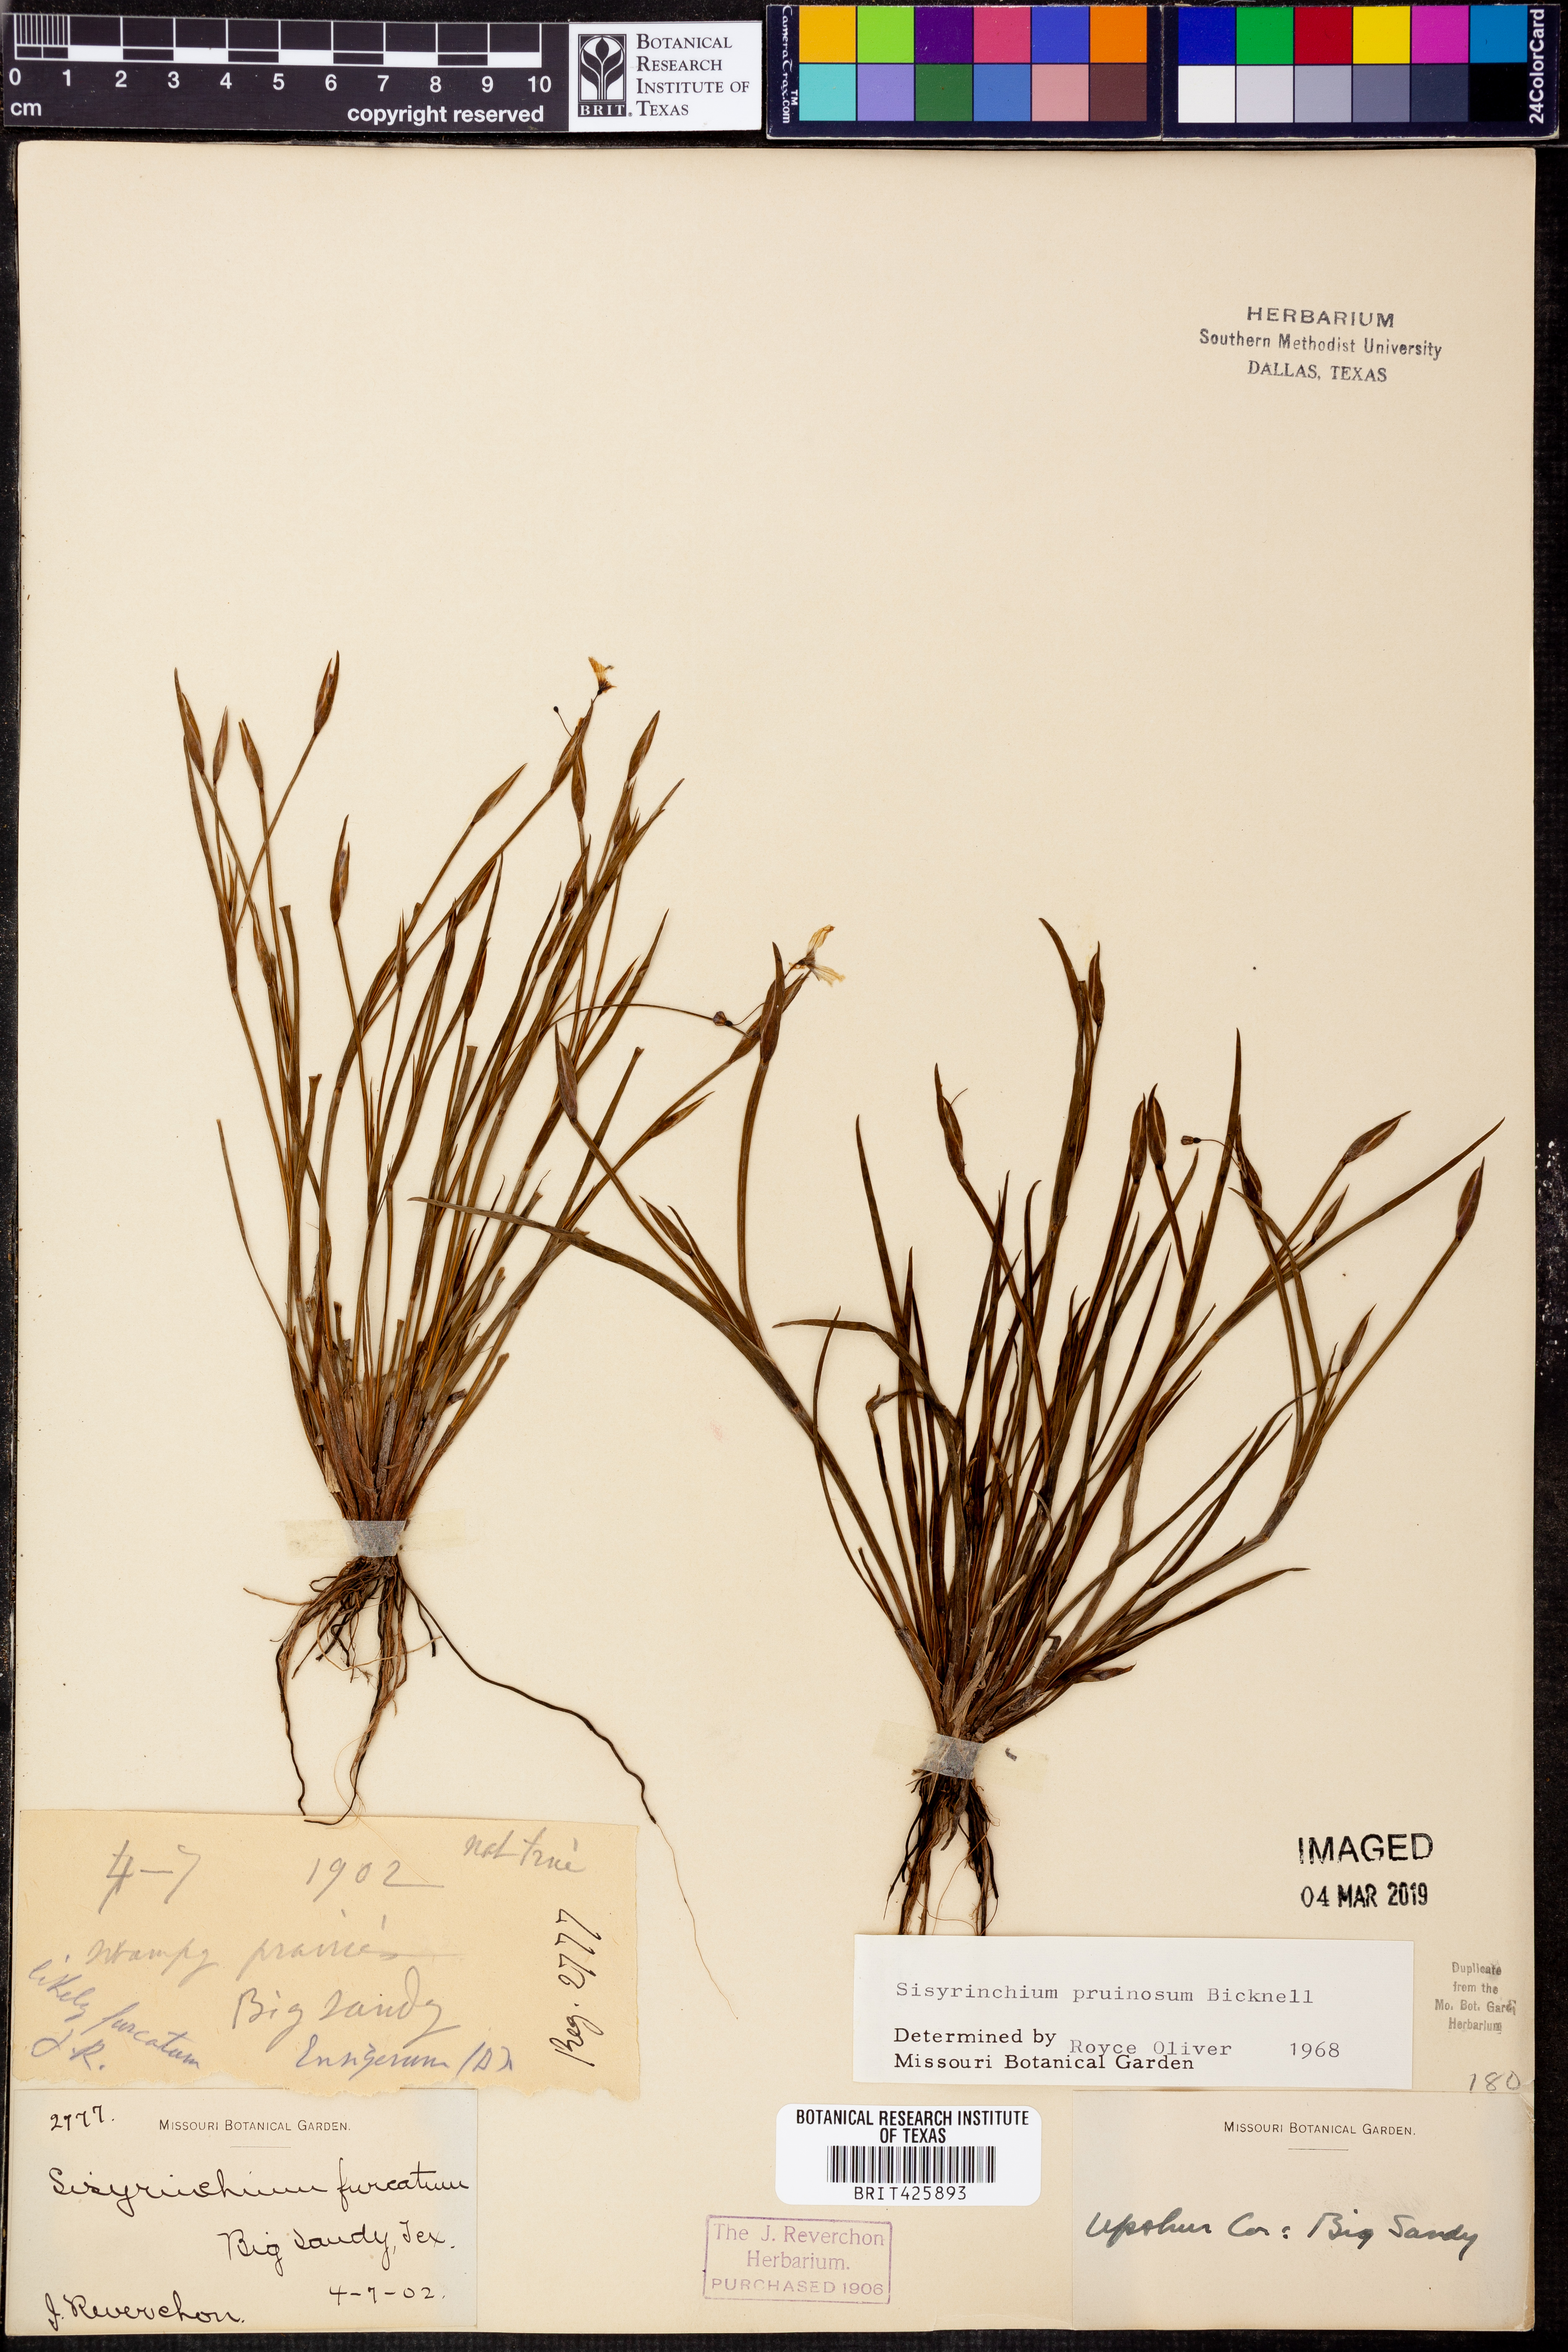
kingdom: Plantae
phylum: Tracheophyta
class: Liliopsida
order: Asparagales
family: Iridaceae
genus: Sisyrinchium
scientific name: Sisyrinchium pruinosum
